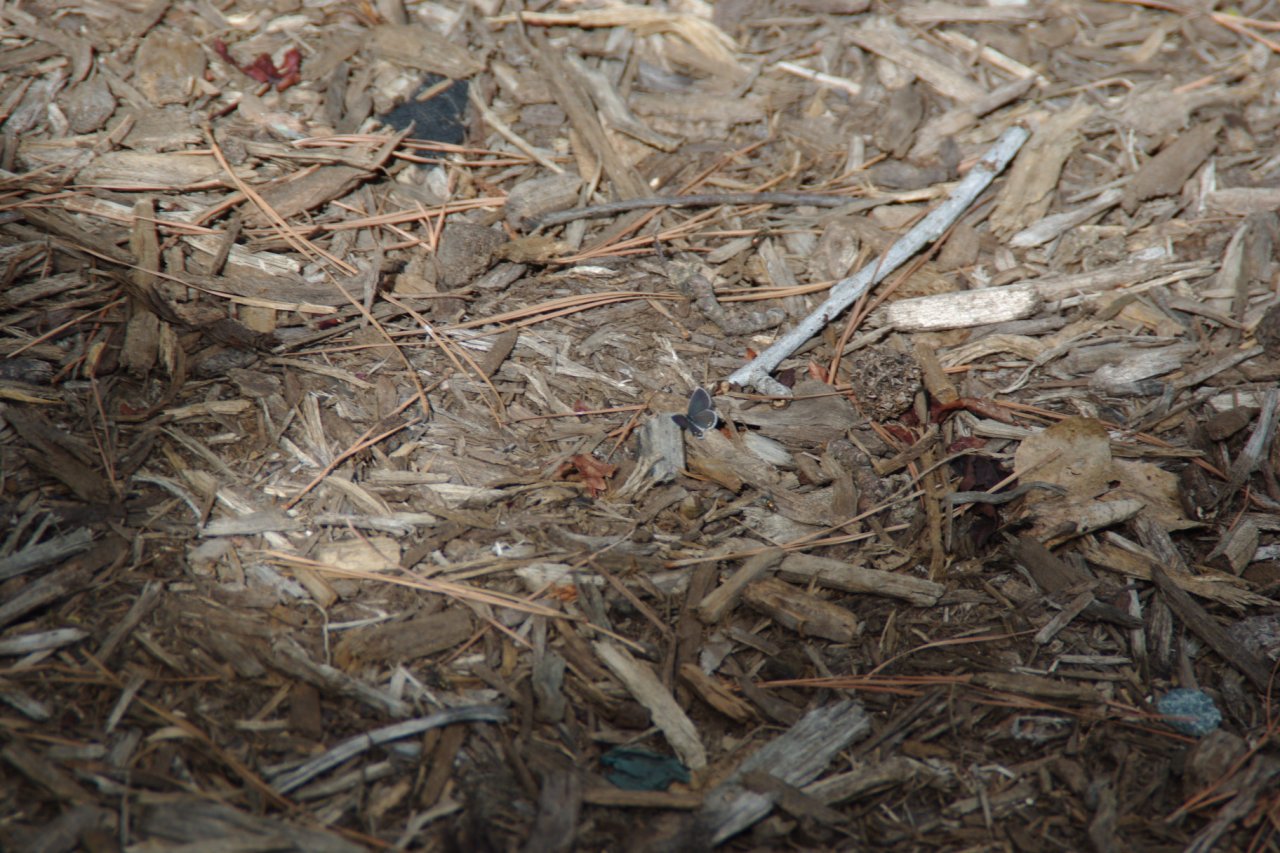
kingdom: Animalia
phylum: Arthropoda
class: Insecta
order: Lepidoptera
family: Lycaenidae
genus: Elkalyce
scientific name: Elkalyce comyntas
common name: Eastern Tailed-Blue
